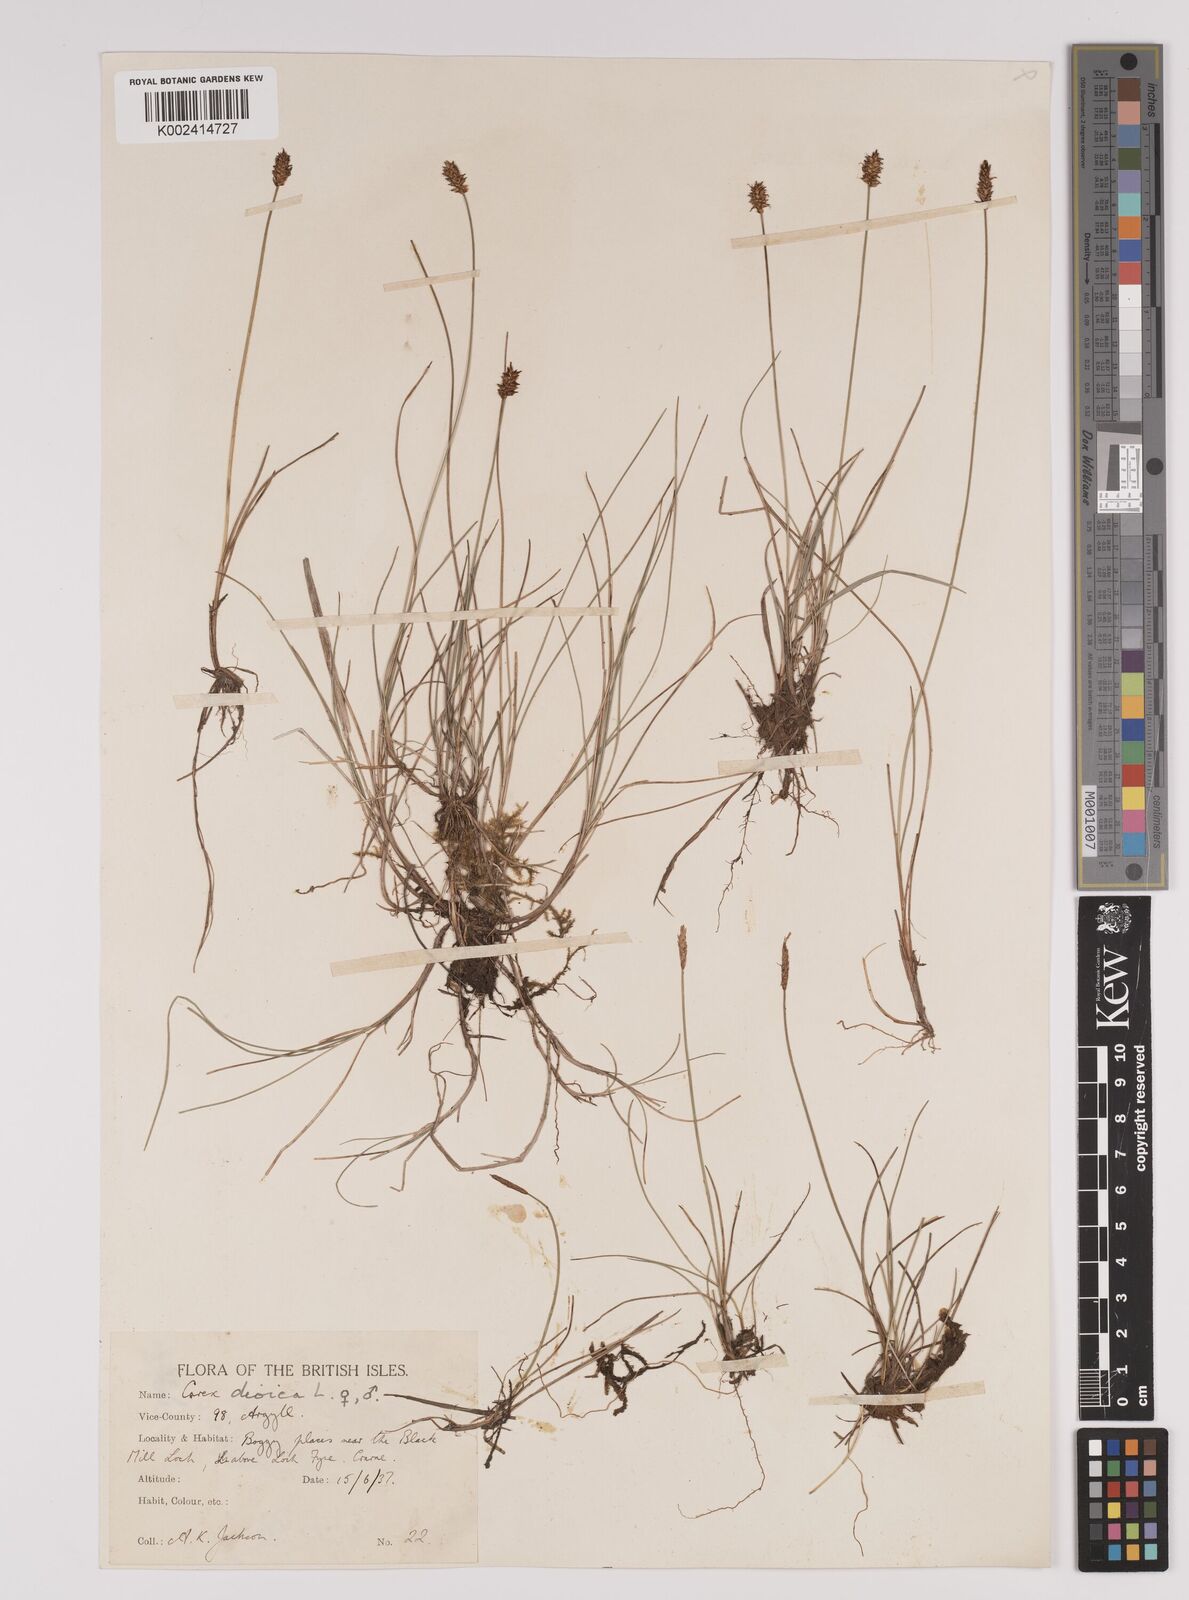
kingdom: Plantae
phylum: Tracheophyta
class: Liliopsida
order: Poales
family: Cyperaceae
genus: Carex
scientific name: Carex dioica
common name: Dioecious sedge
